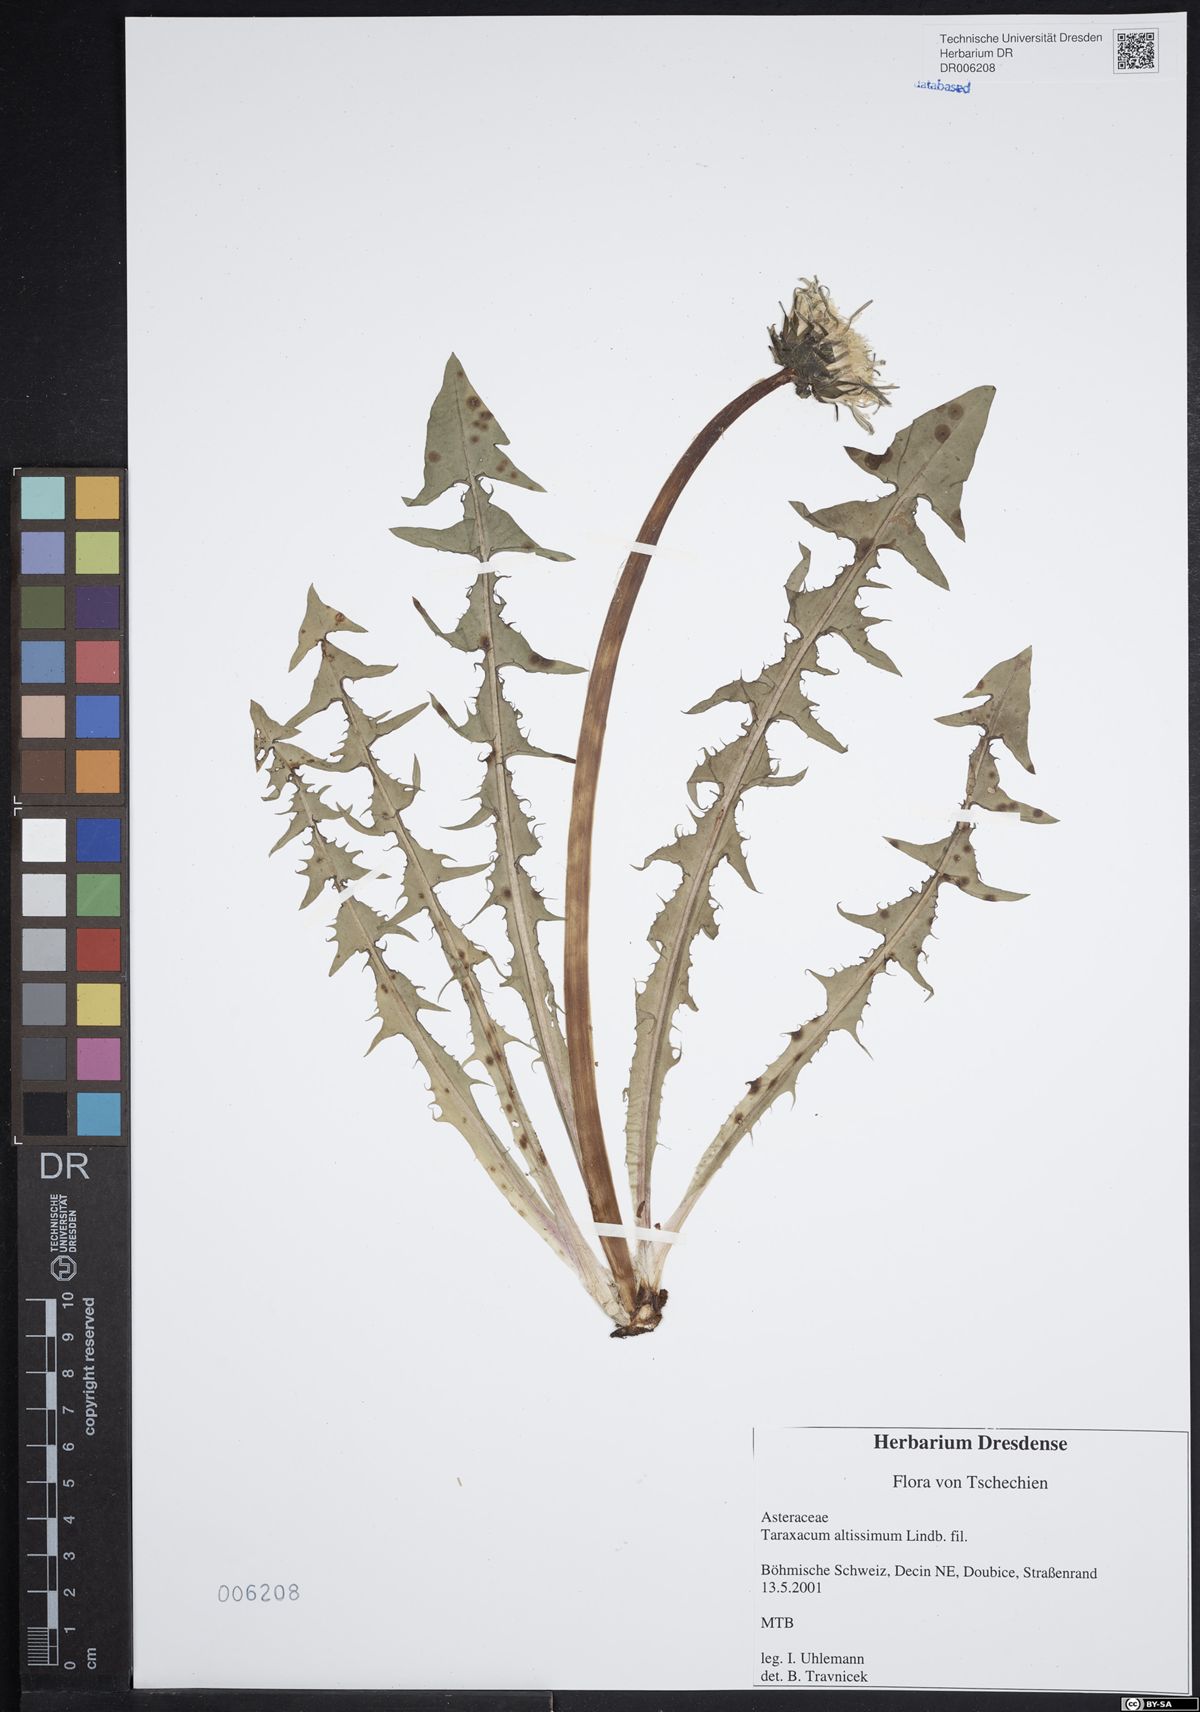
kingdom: Plantae
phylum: Tracheophyta
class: Magnoliopsida
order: Asterales
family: Asteraceae
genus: Taraxacum
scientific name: Taraxacum altissimum
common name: Tall dandelion
